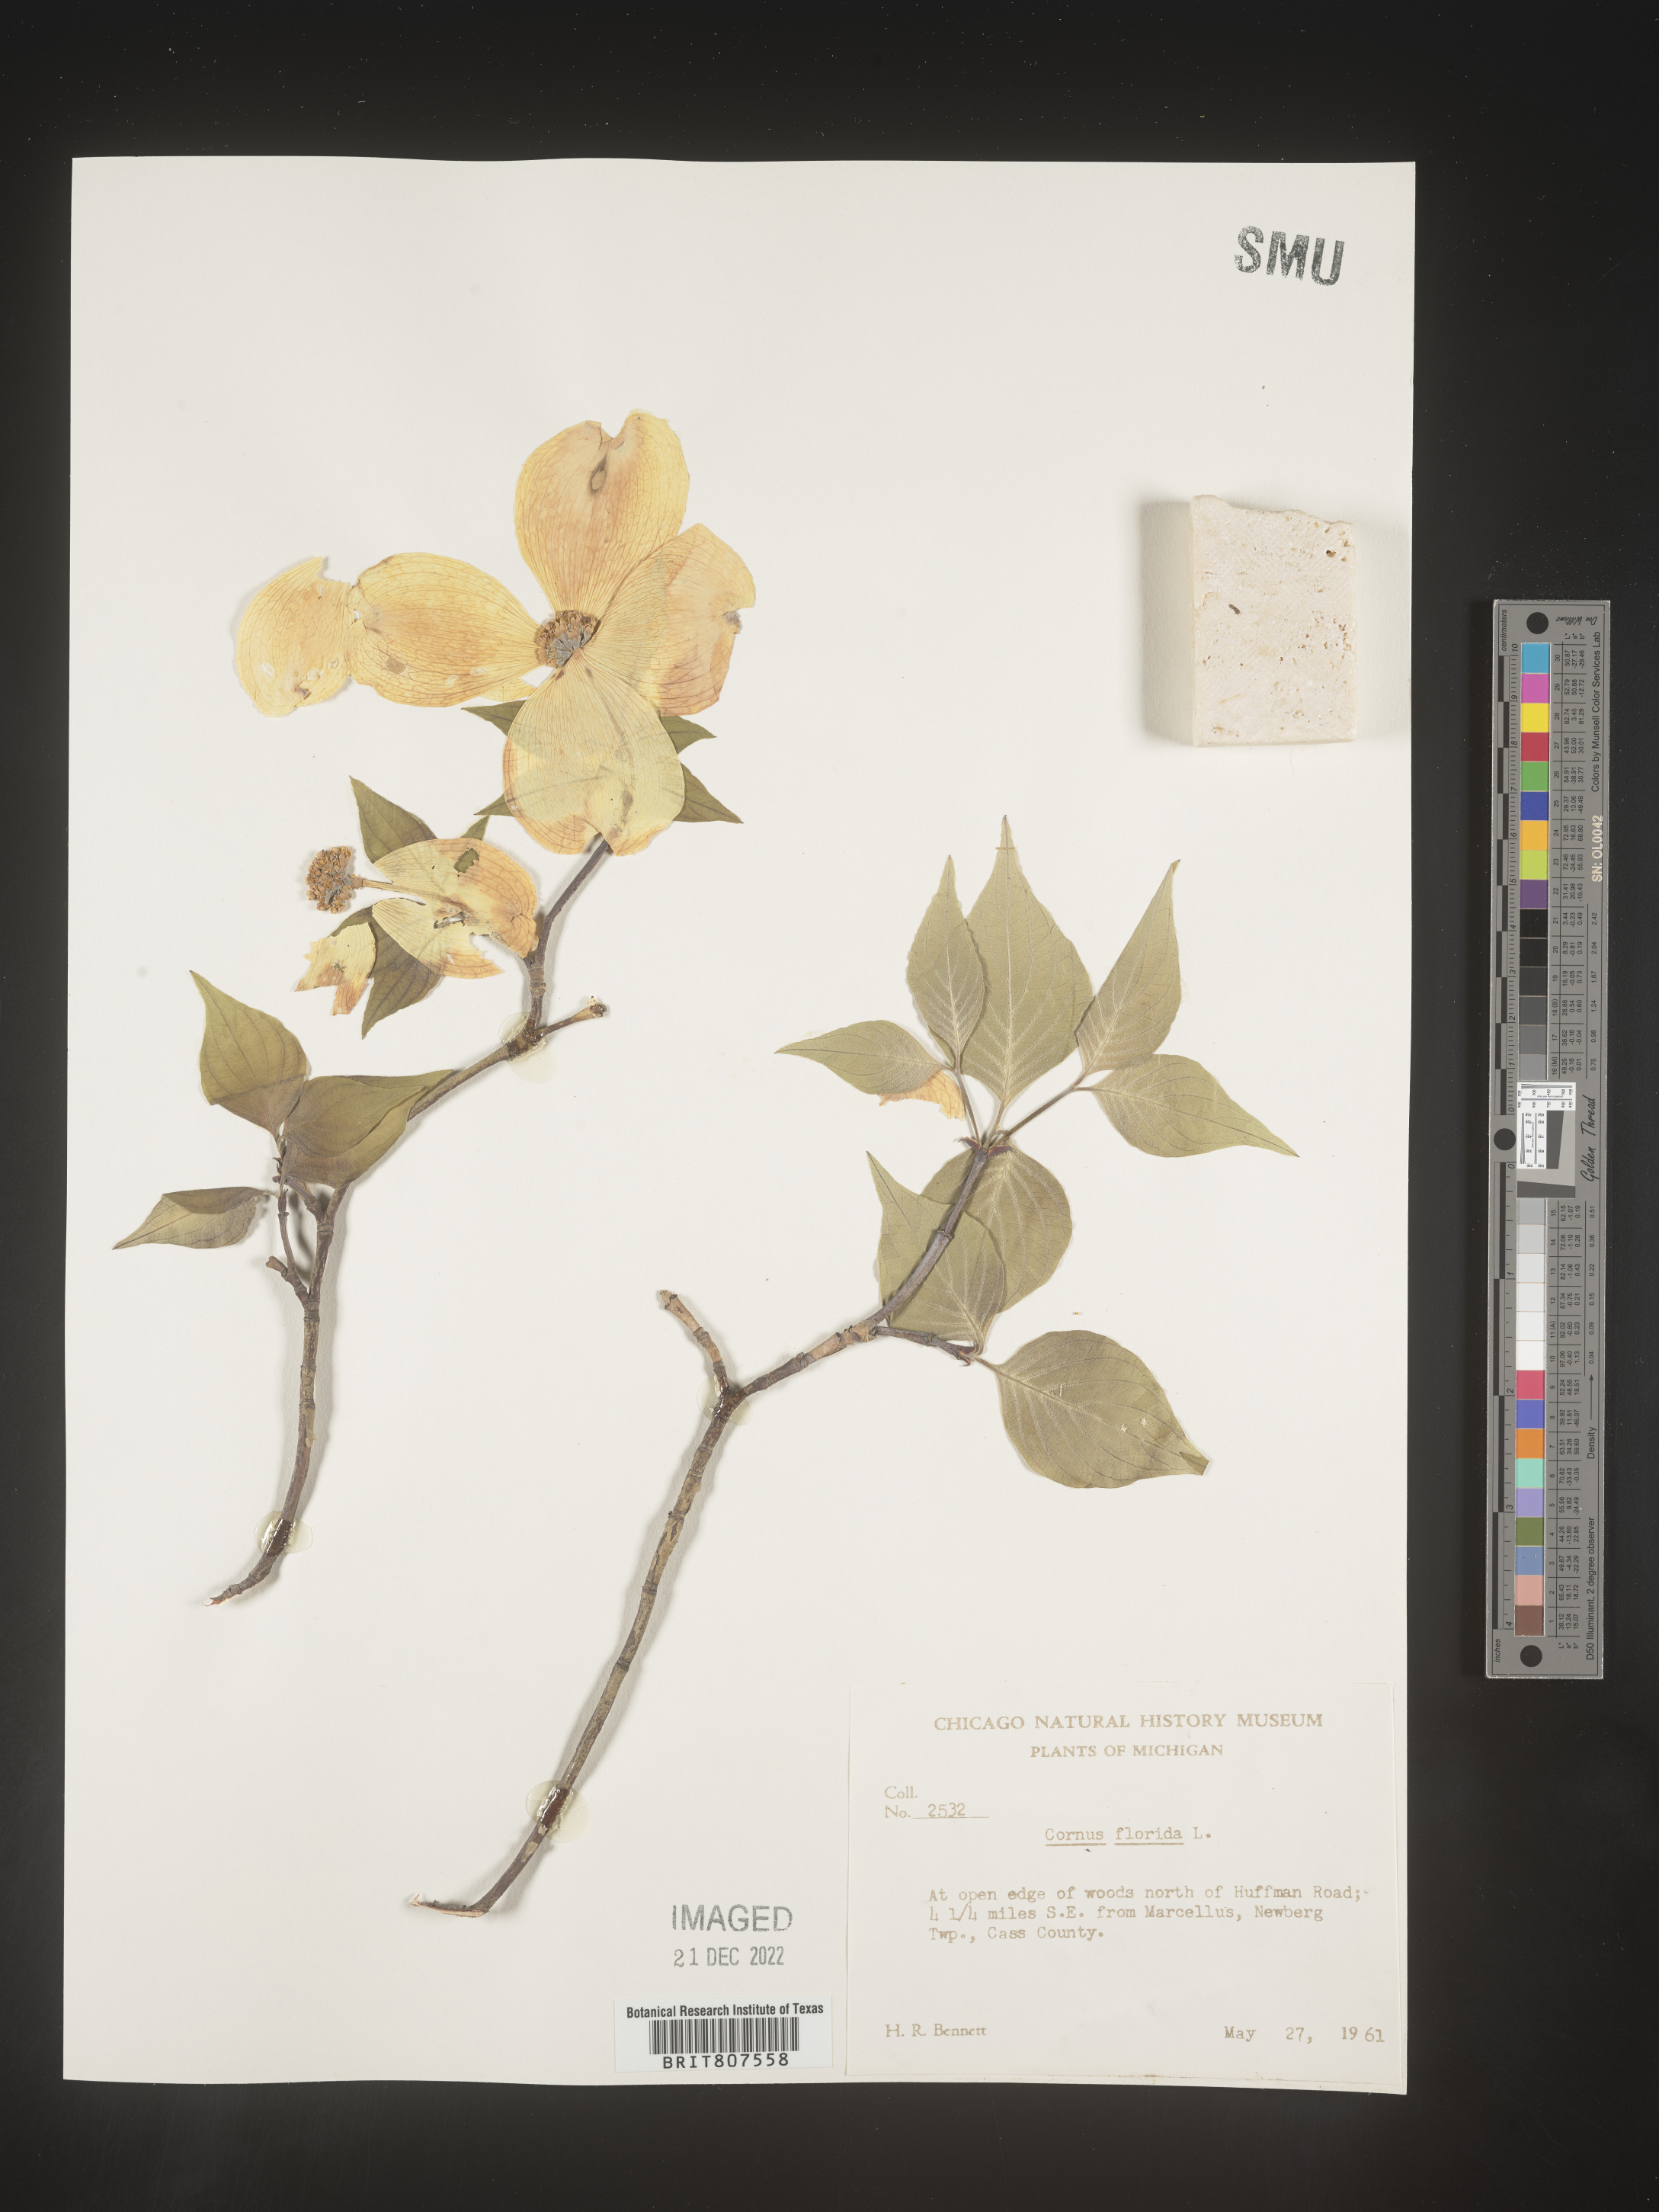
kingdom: Plantae
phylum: Tracheophyta
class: Magnoliopsida
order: Cornales
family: Cornaceae
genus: Cornus
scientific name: Cornus florida
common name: Flowering dogwood
